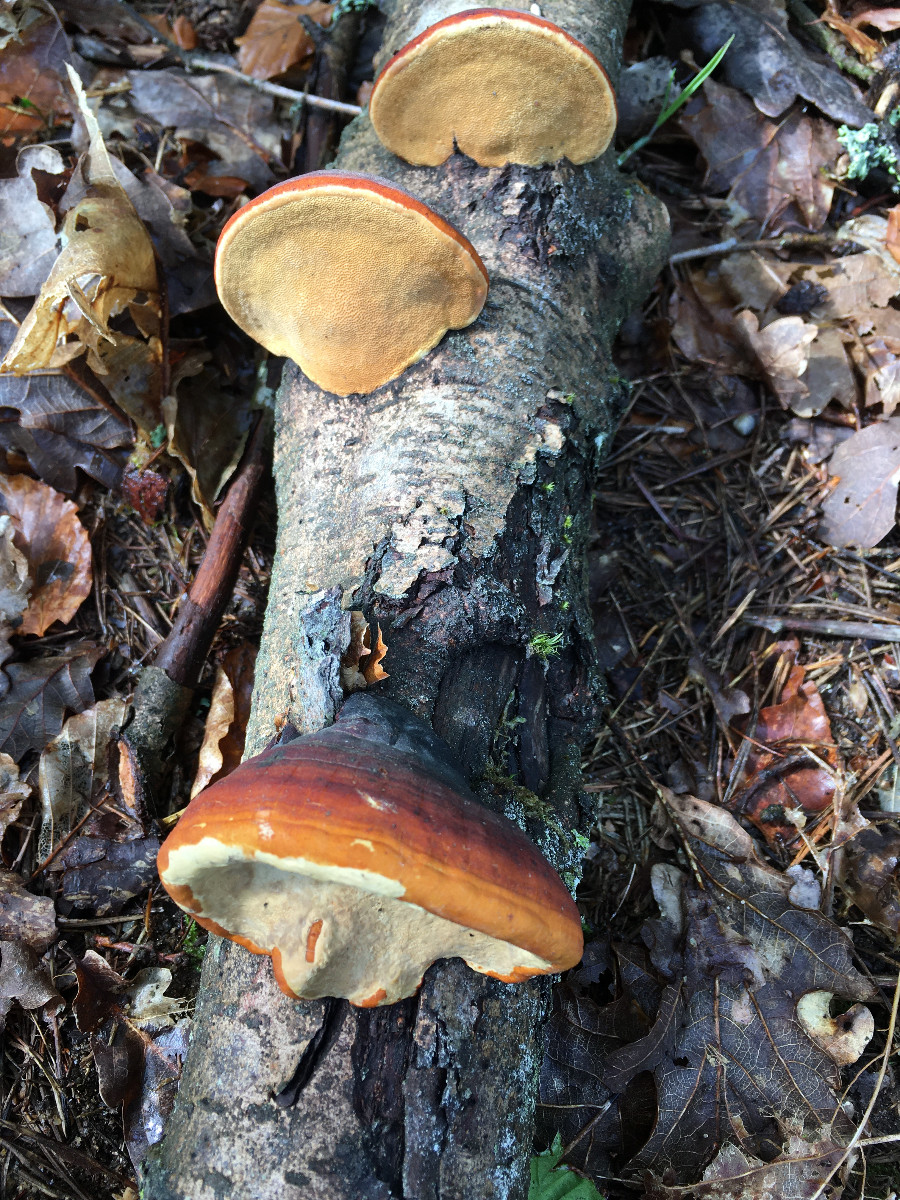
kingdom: Fungi
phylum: Basidiomycota
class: Agaricomycetes
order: Polyporales
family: Fomitopsidaceae
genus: Fomitopsis
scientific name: Fomitopsis pinicola
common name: randbæltet hovporesvamp
